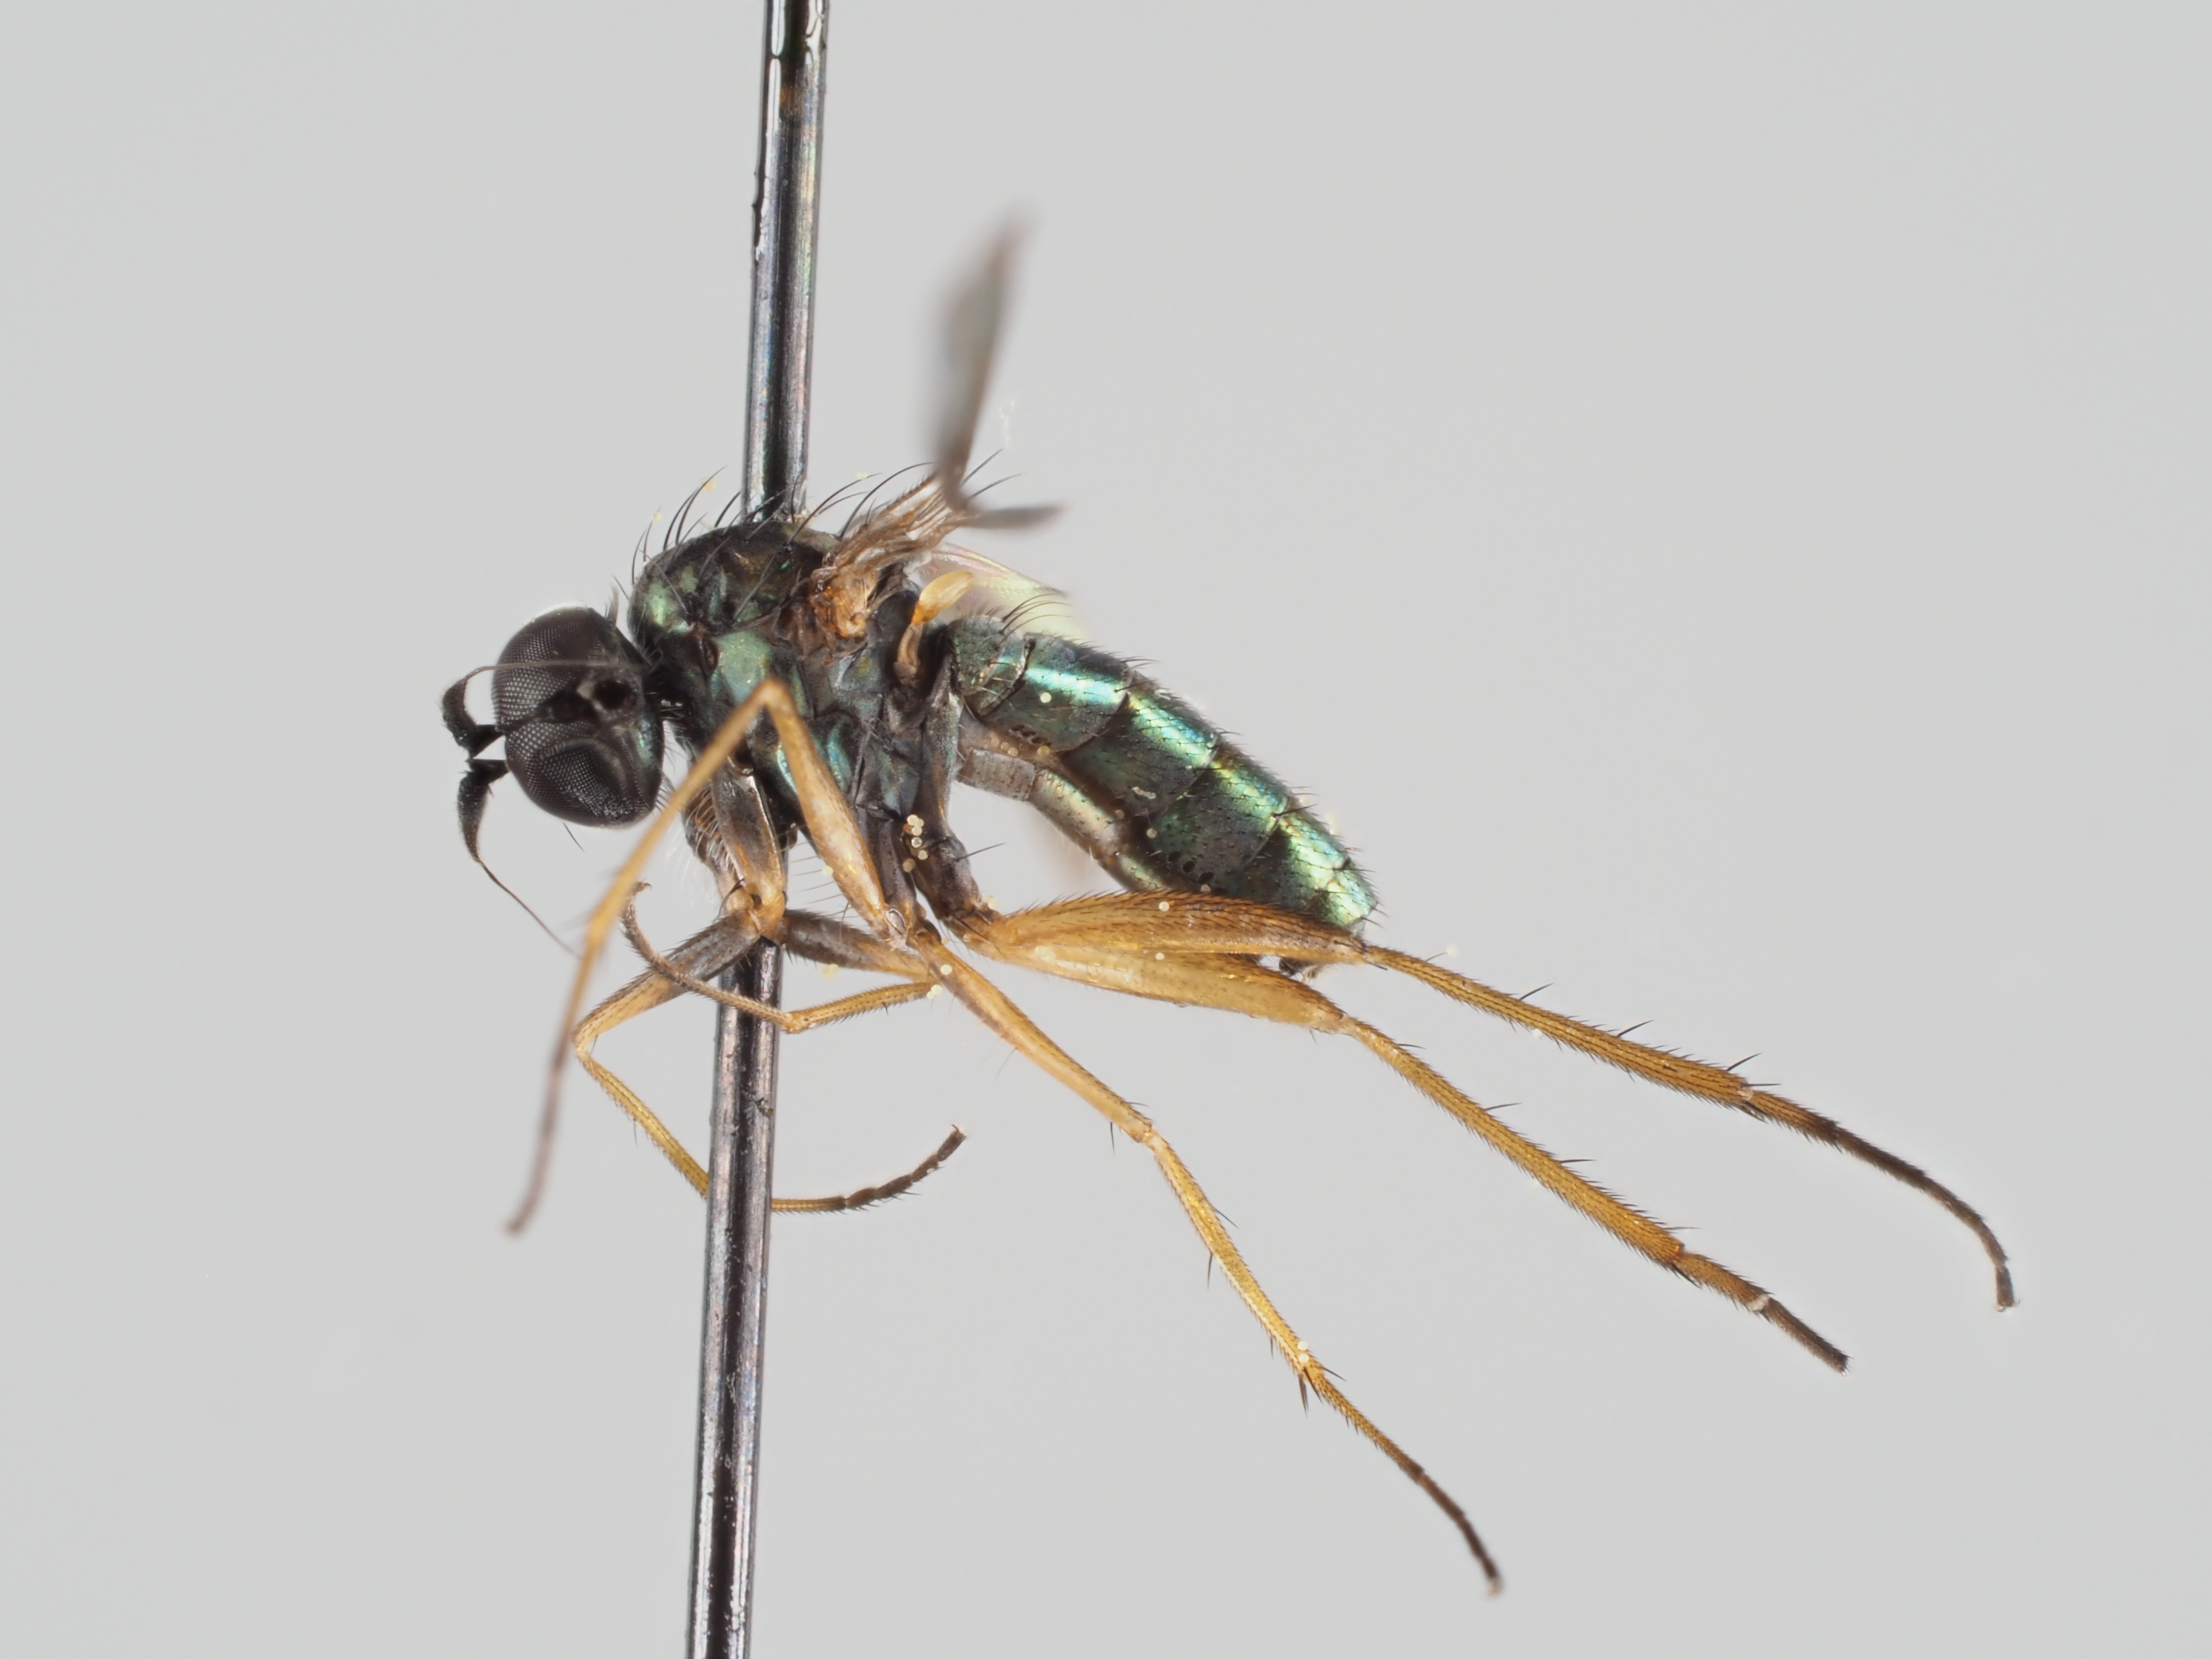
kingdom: Animalia
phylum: Arthropoda
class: Insecta
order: Diptera
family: Dolichopodidae
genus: Syntormon
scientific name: Syntormon metathesis
